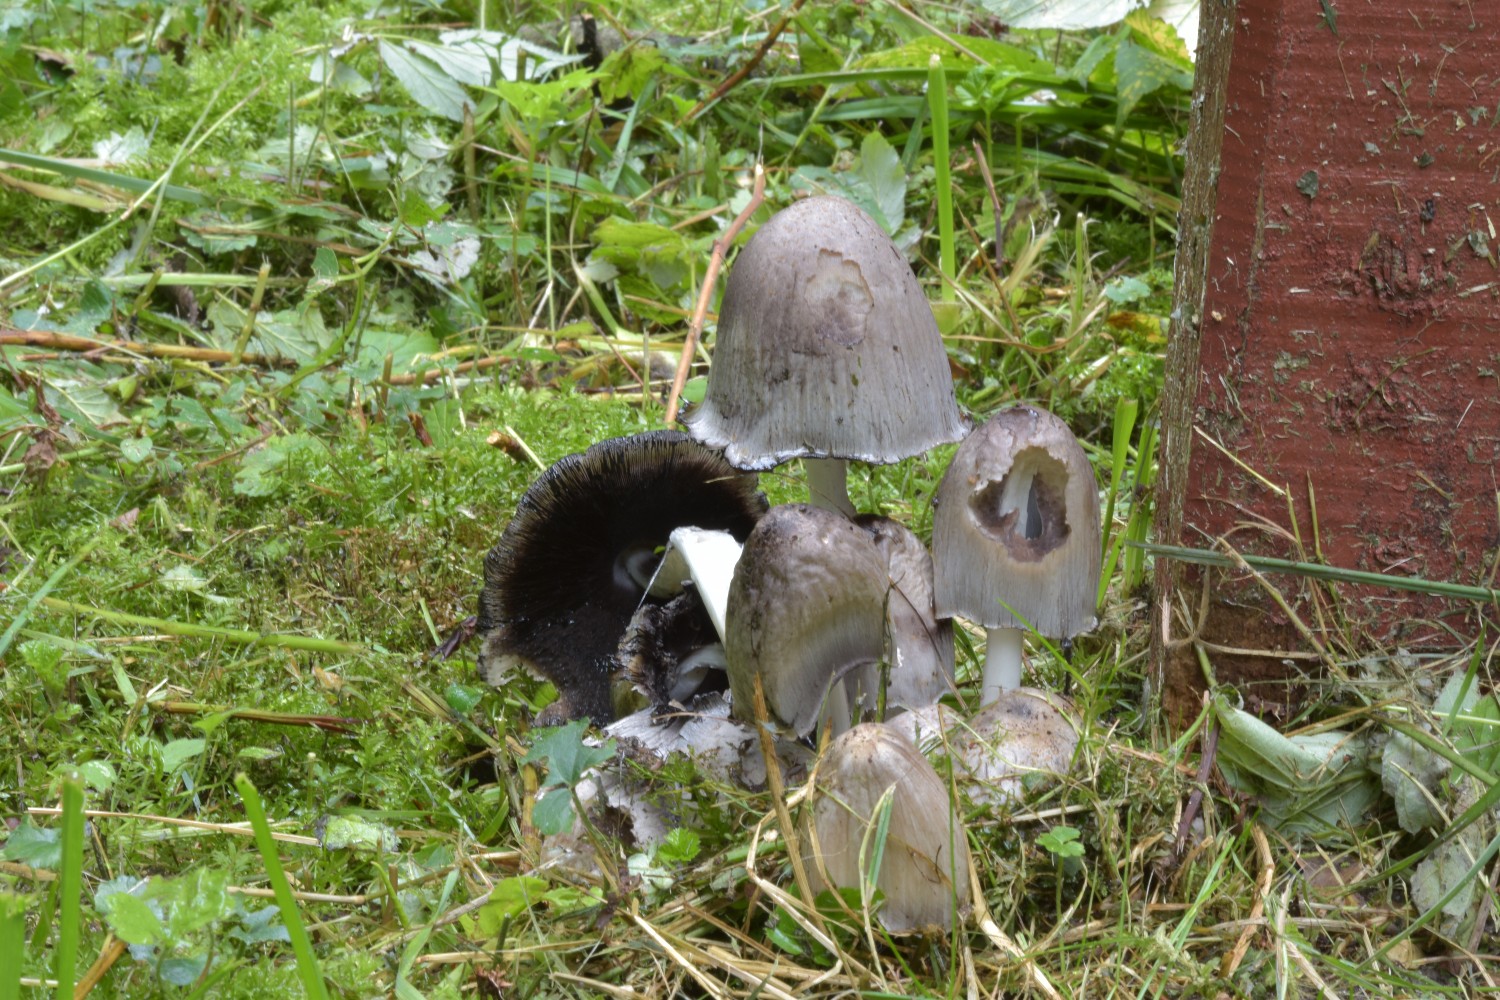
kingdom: Fungi
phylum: Basidiomycota
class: Agaricomycetes
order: Agaricales
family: Psathyrellaceae
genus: Coprinopsis
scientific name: Coprinopsis atramentaria
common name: almindelig blækhat
